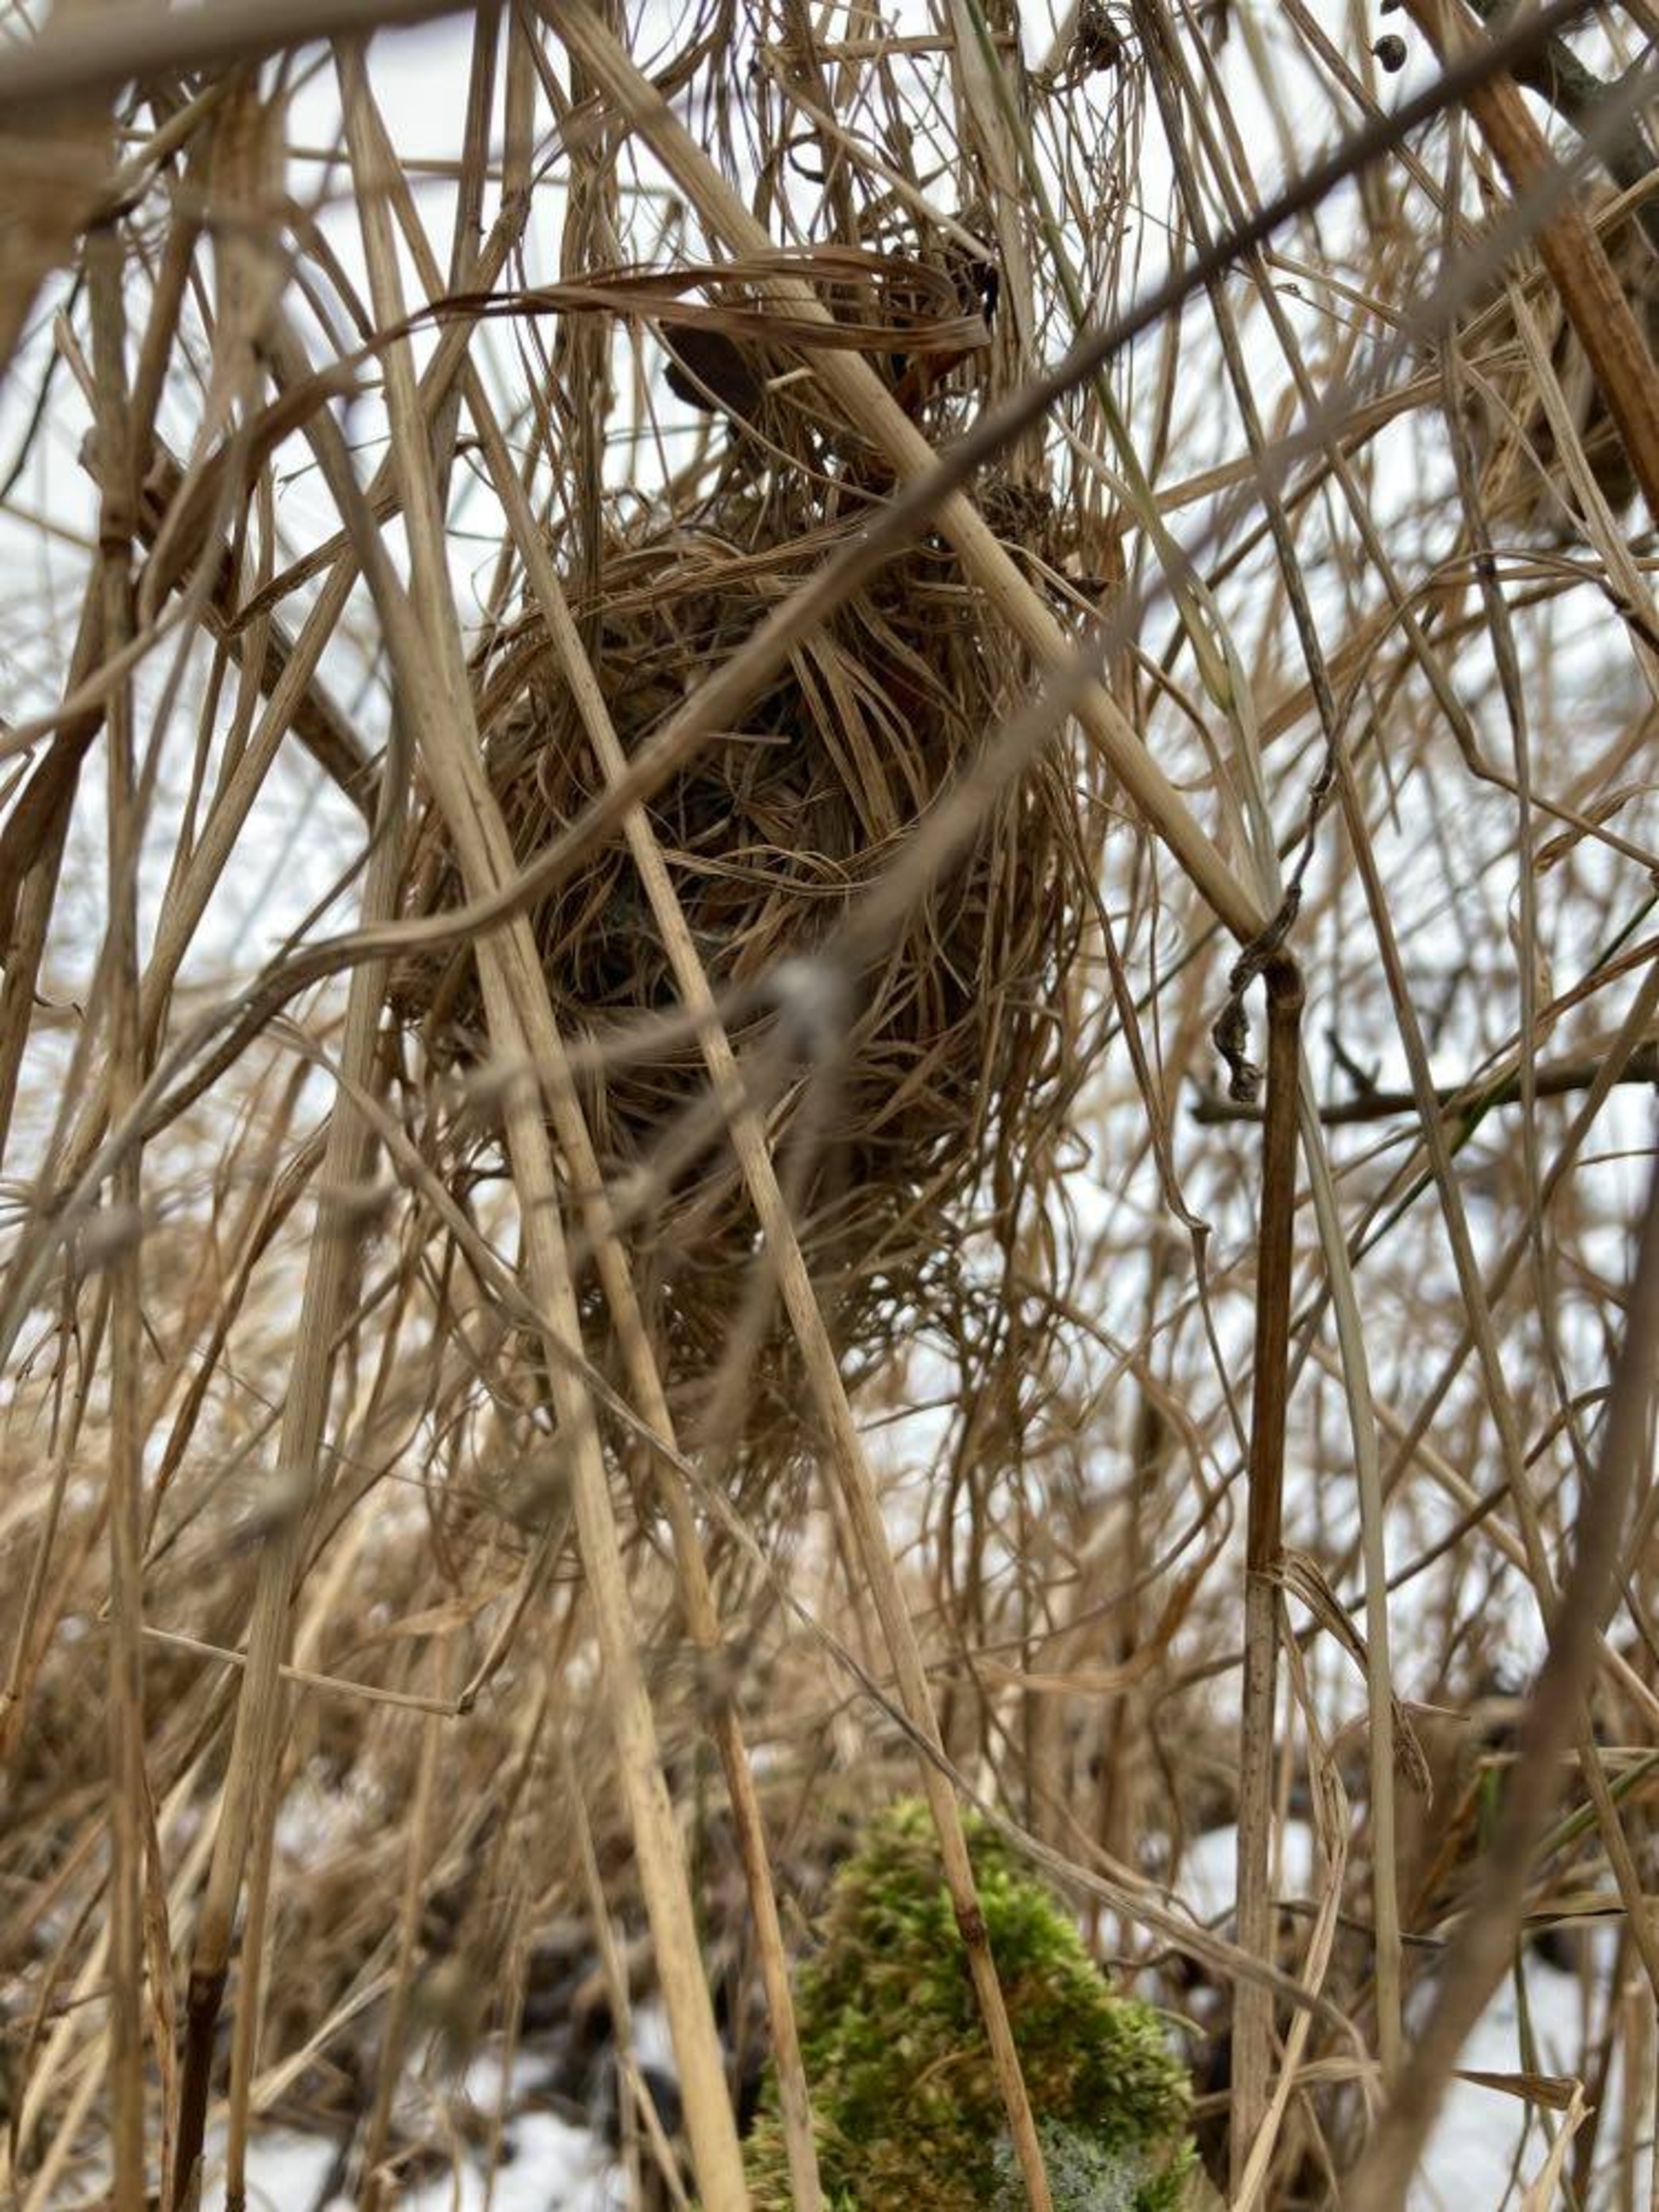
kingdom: Animalia
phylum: Chordata
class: Mammalia
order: Rodentia
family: Muridae
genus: Micromys
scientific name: Micromys minutus
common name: Dværgmus
